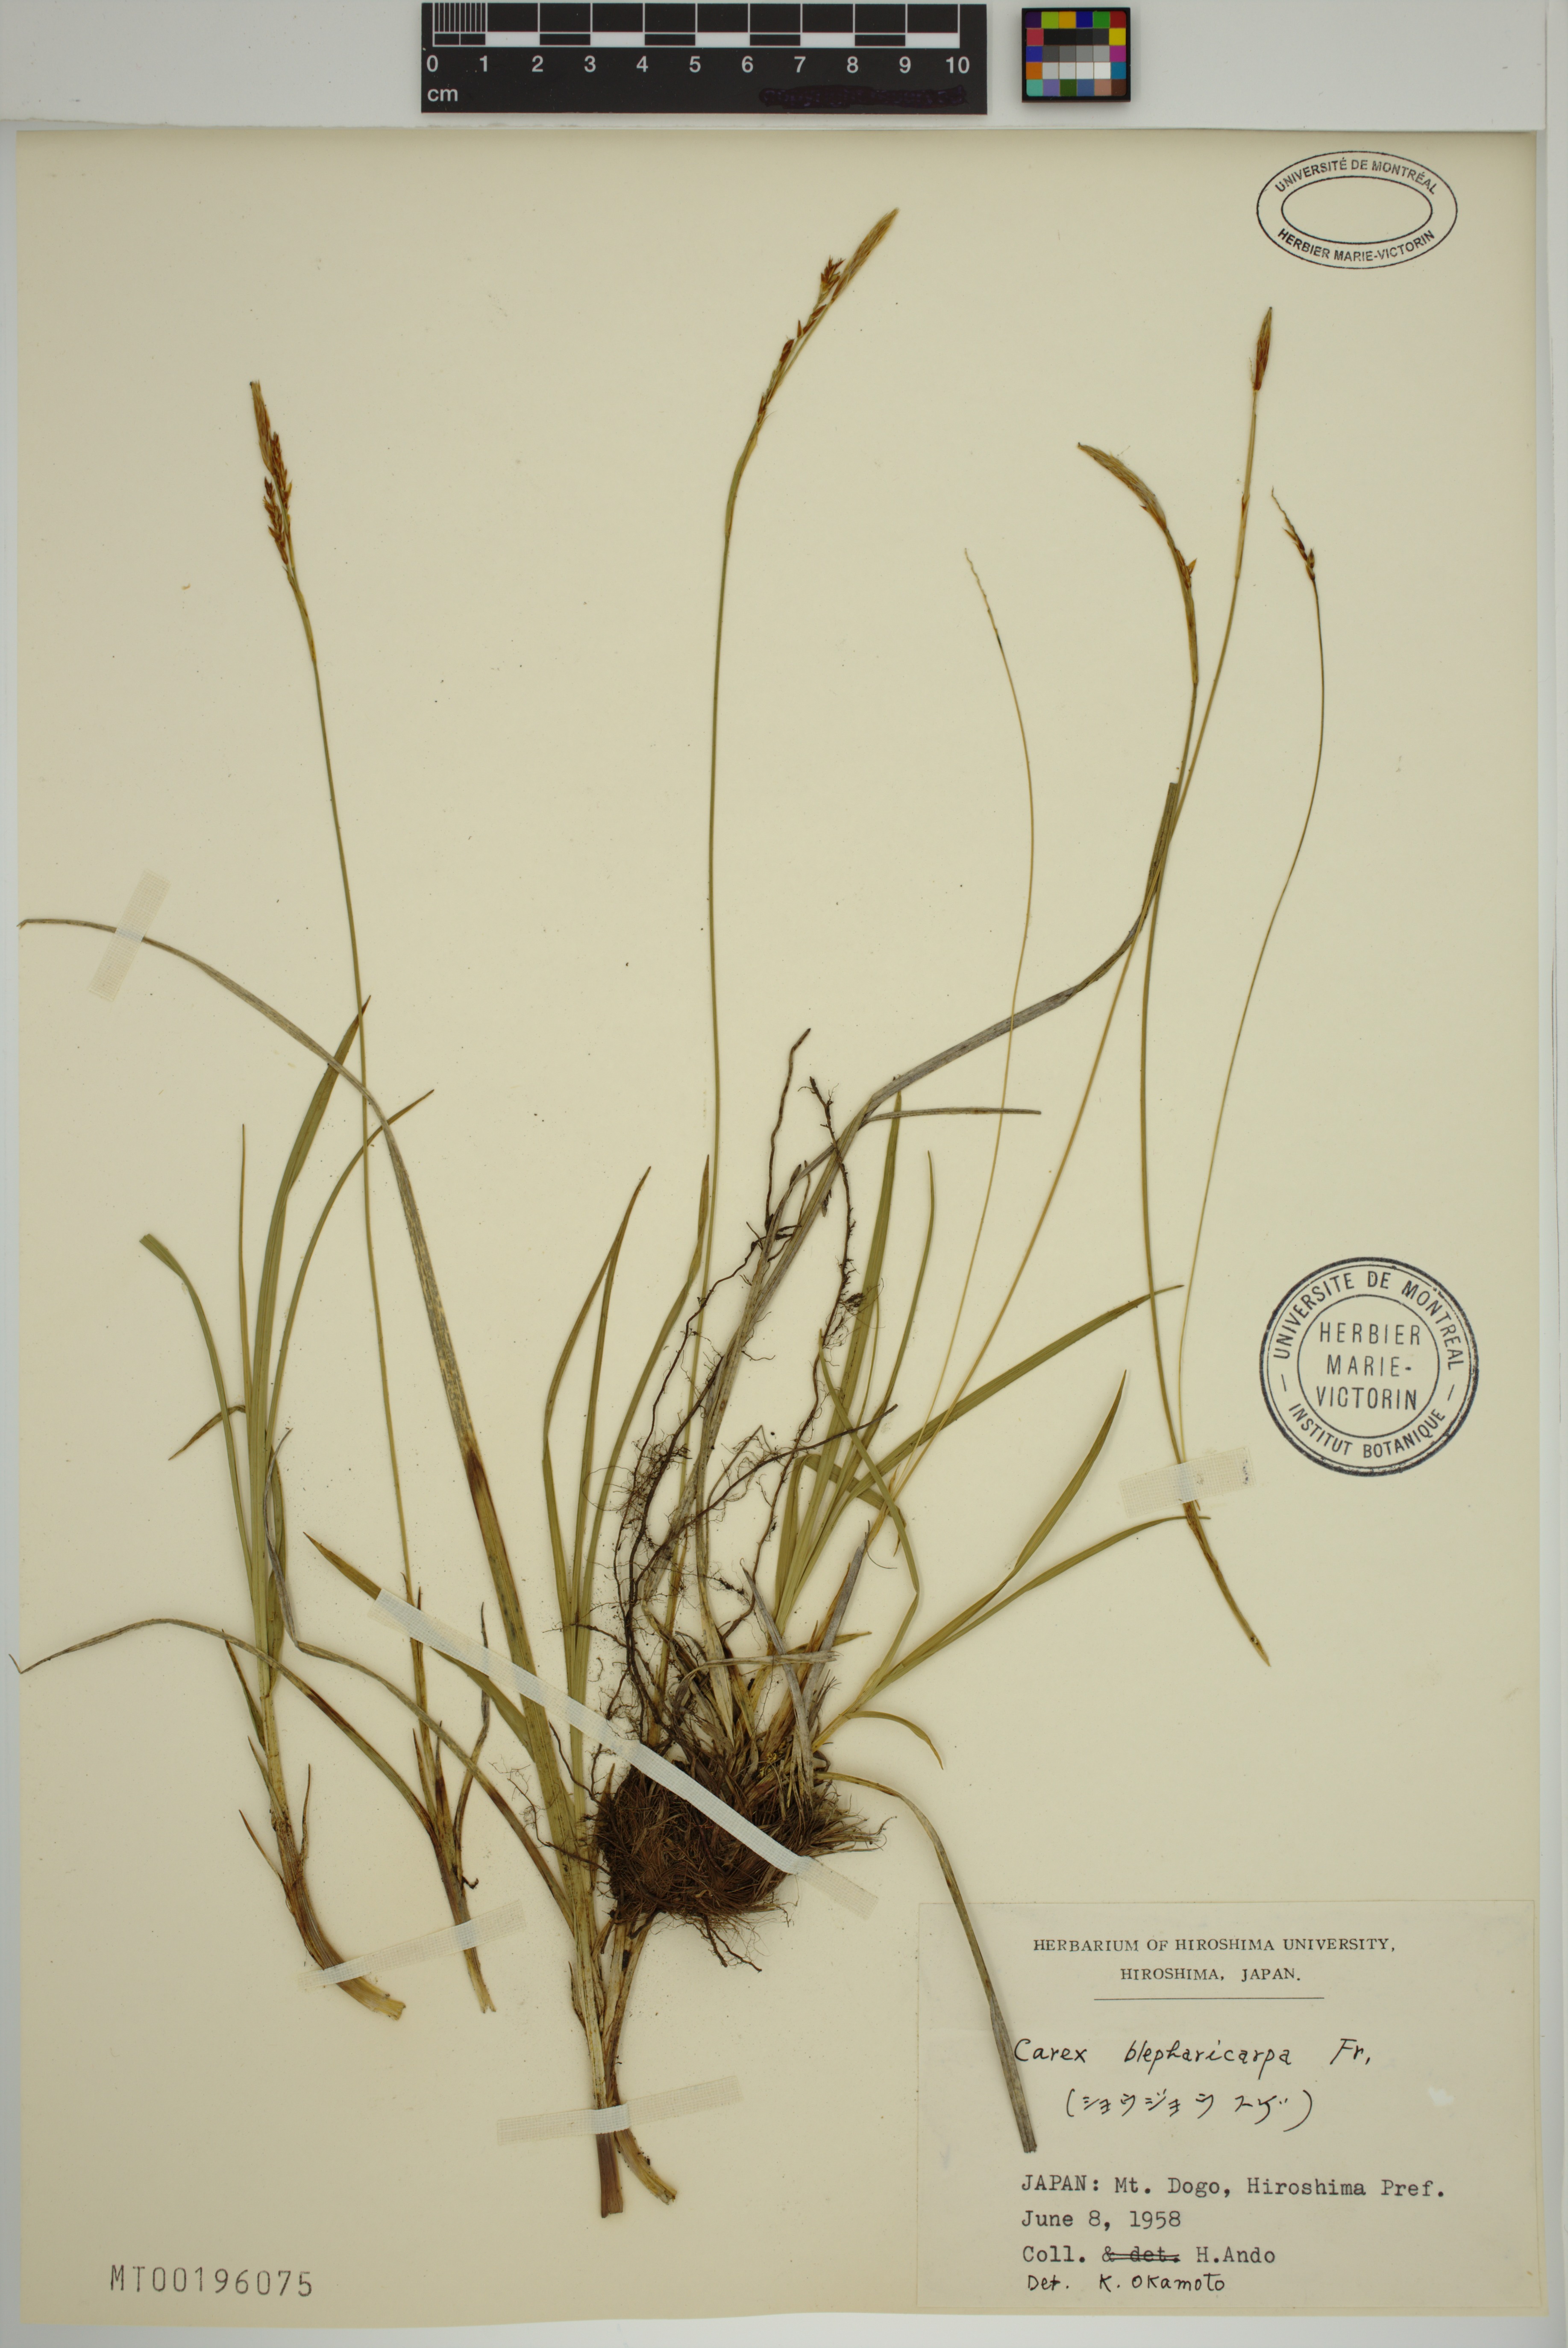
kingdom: Plantae
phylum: Tracheophyta
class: Liliopsida
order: Poales
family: Cyperaceae
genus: Carex
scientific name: Carex blepharicarpa
